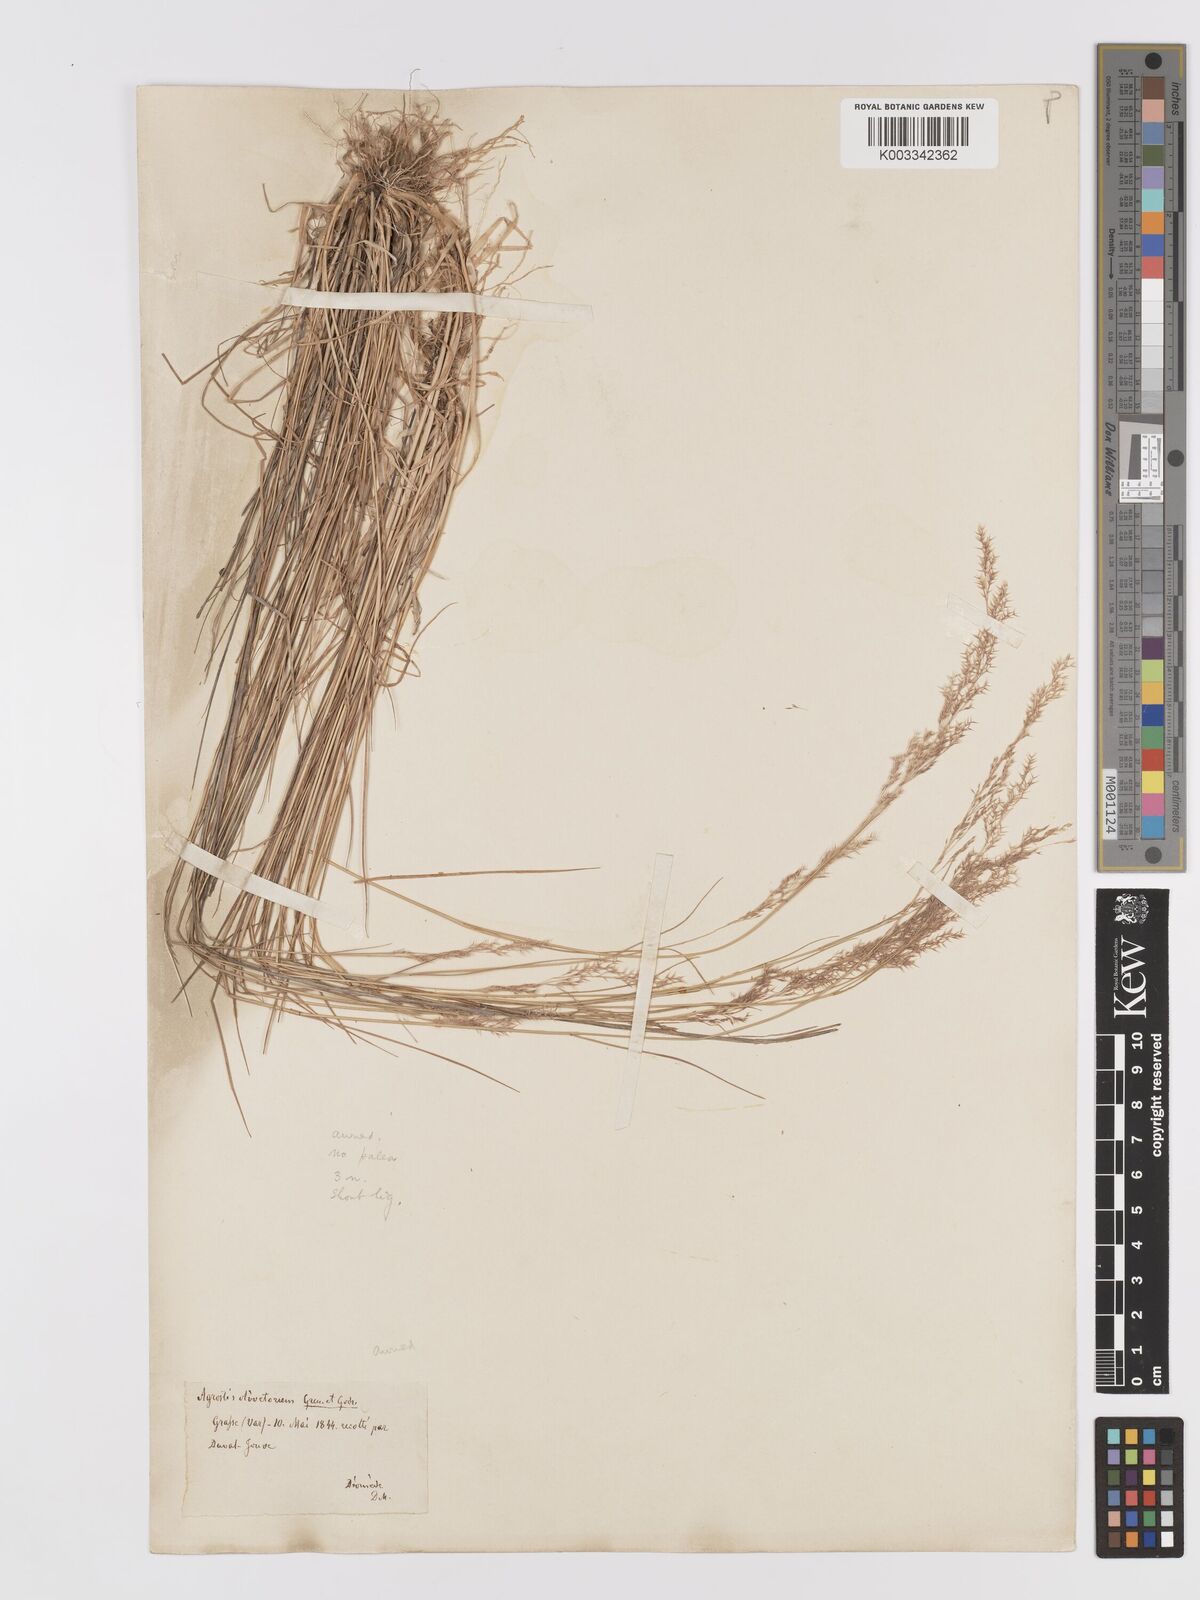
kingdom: Plantae
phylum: Tracheophyta
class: Liliopsida
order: Poales
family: Poaceae
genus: Agrostis
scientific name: Agrostis castellana
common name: Highland bent
